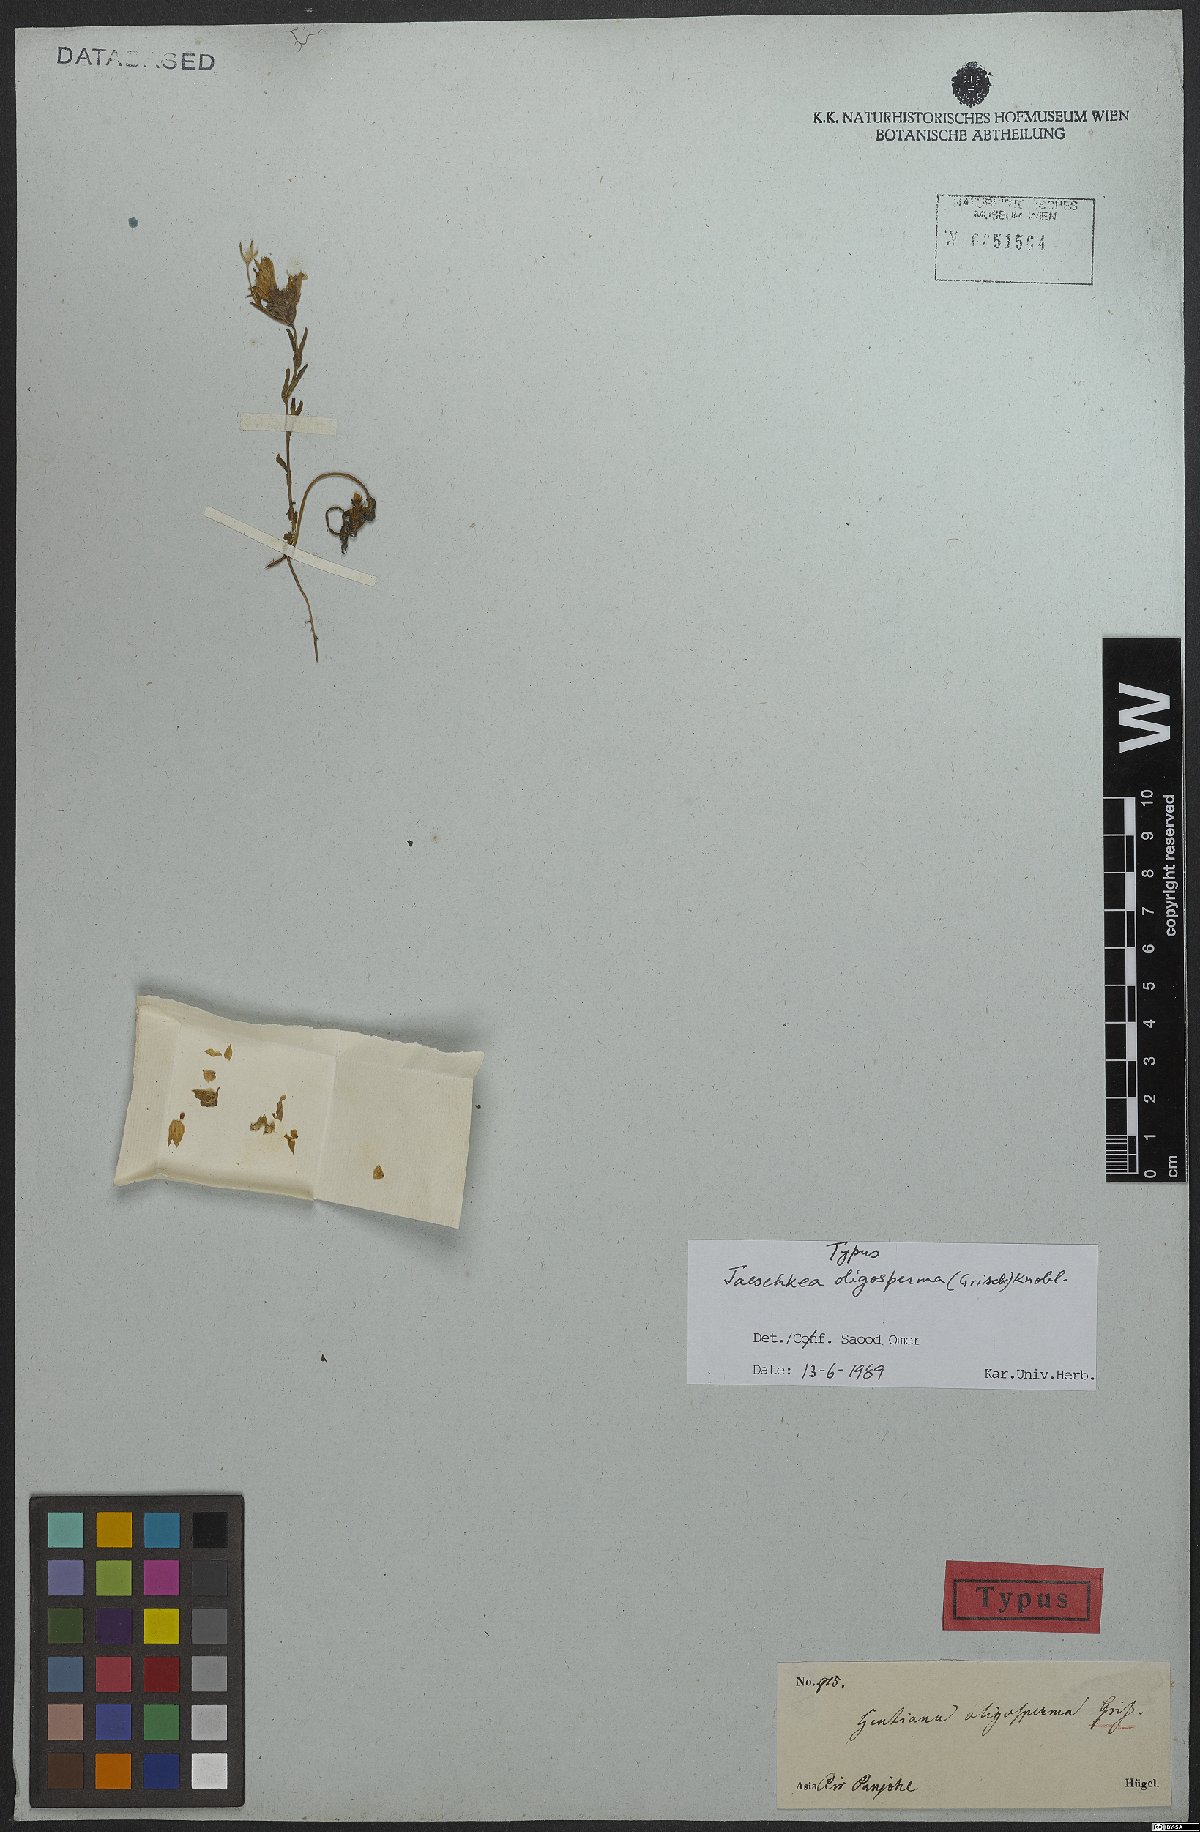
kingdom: Plantae
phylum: Tracheophyta
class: Magnoliopsida
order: Gentianales
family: Gentianaceae
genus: Jaeschkea
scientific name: Jaeschkea oligosperma
